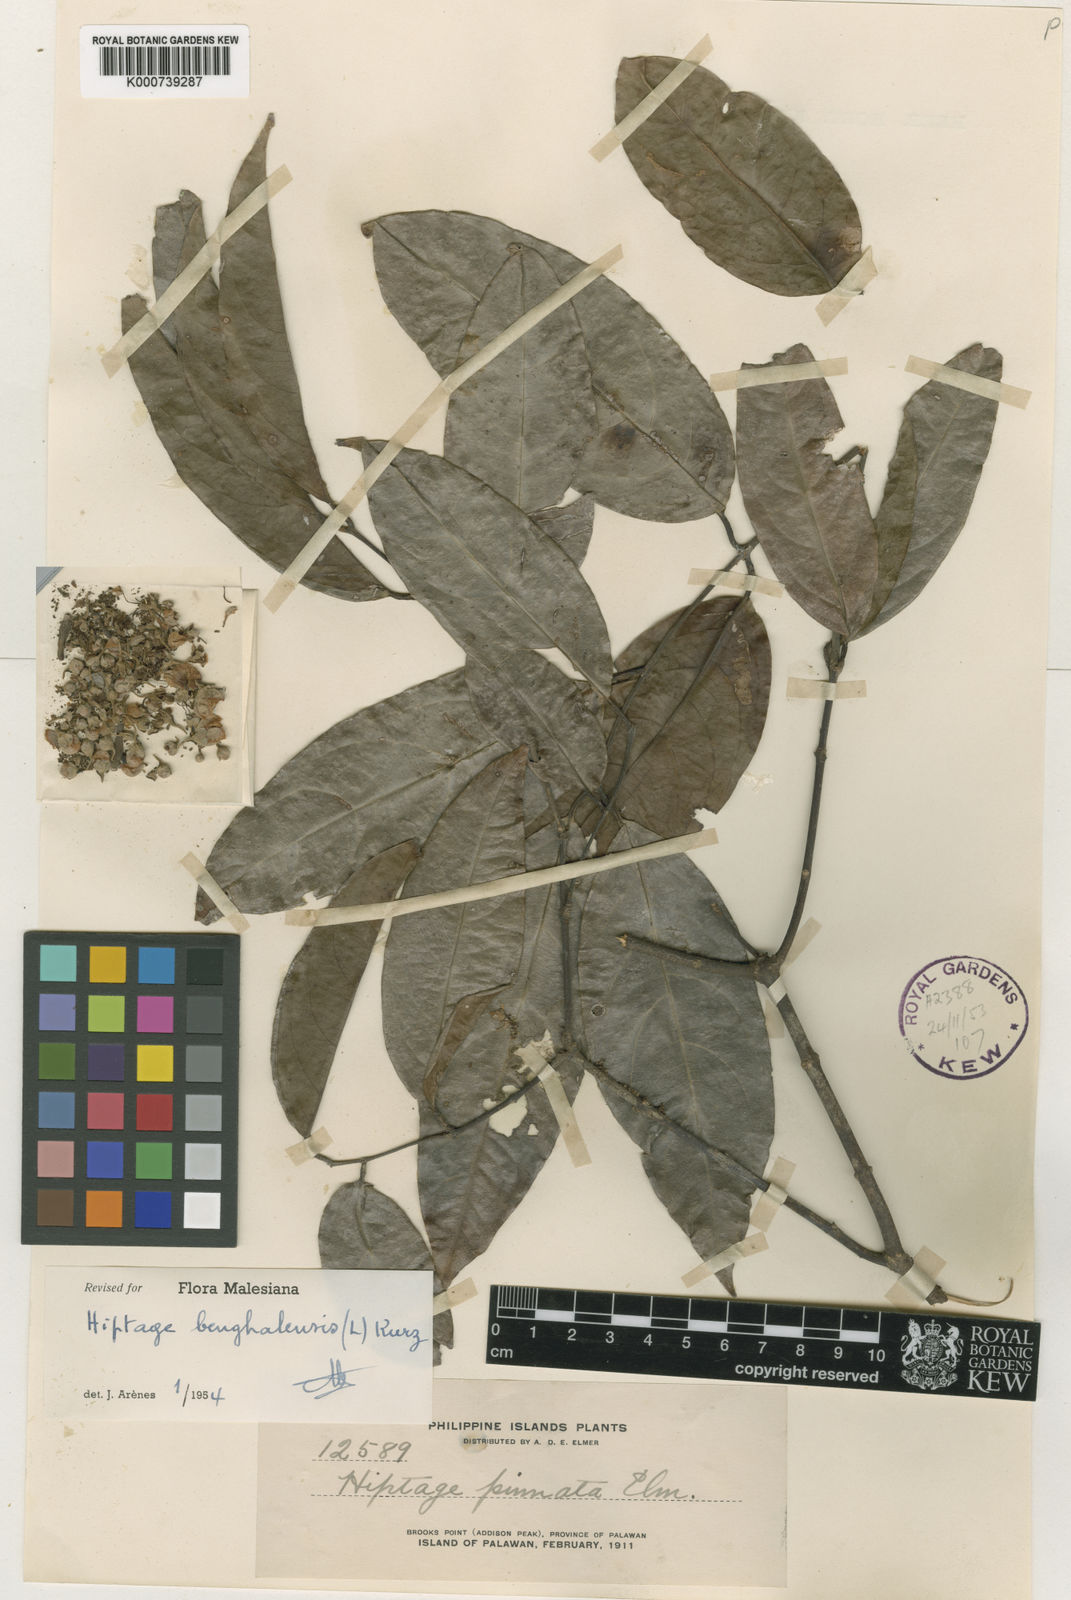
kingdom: Plantae
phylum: Tracheophyta
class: Magnoliopsida
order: Malpighiales
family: Malpighiaceae
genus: Hiptage
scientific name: Hiptage benghalensis
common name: Hiptage
